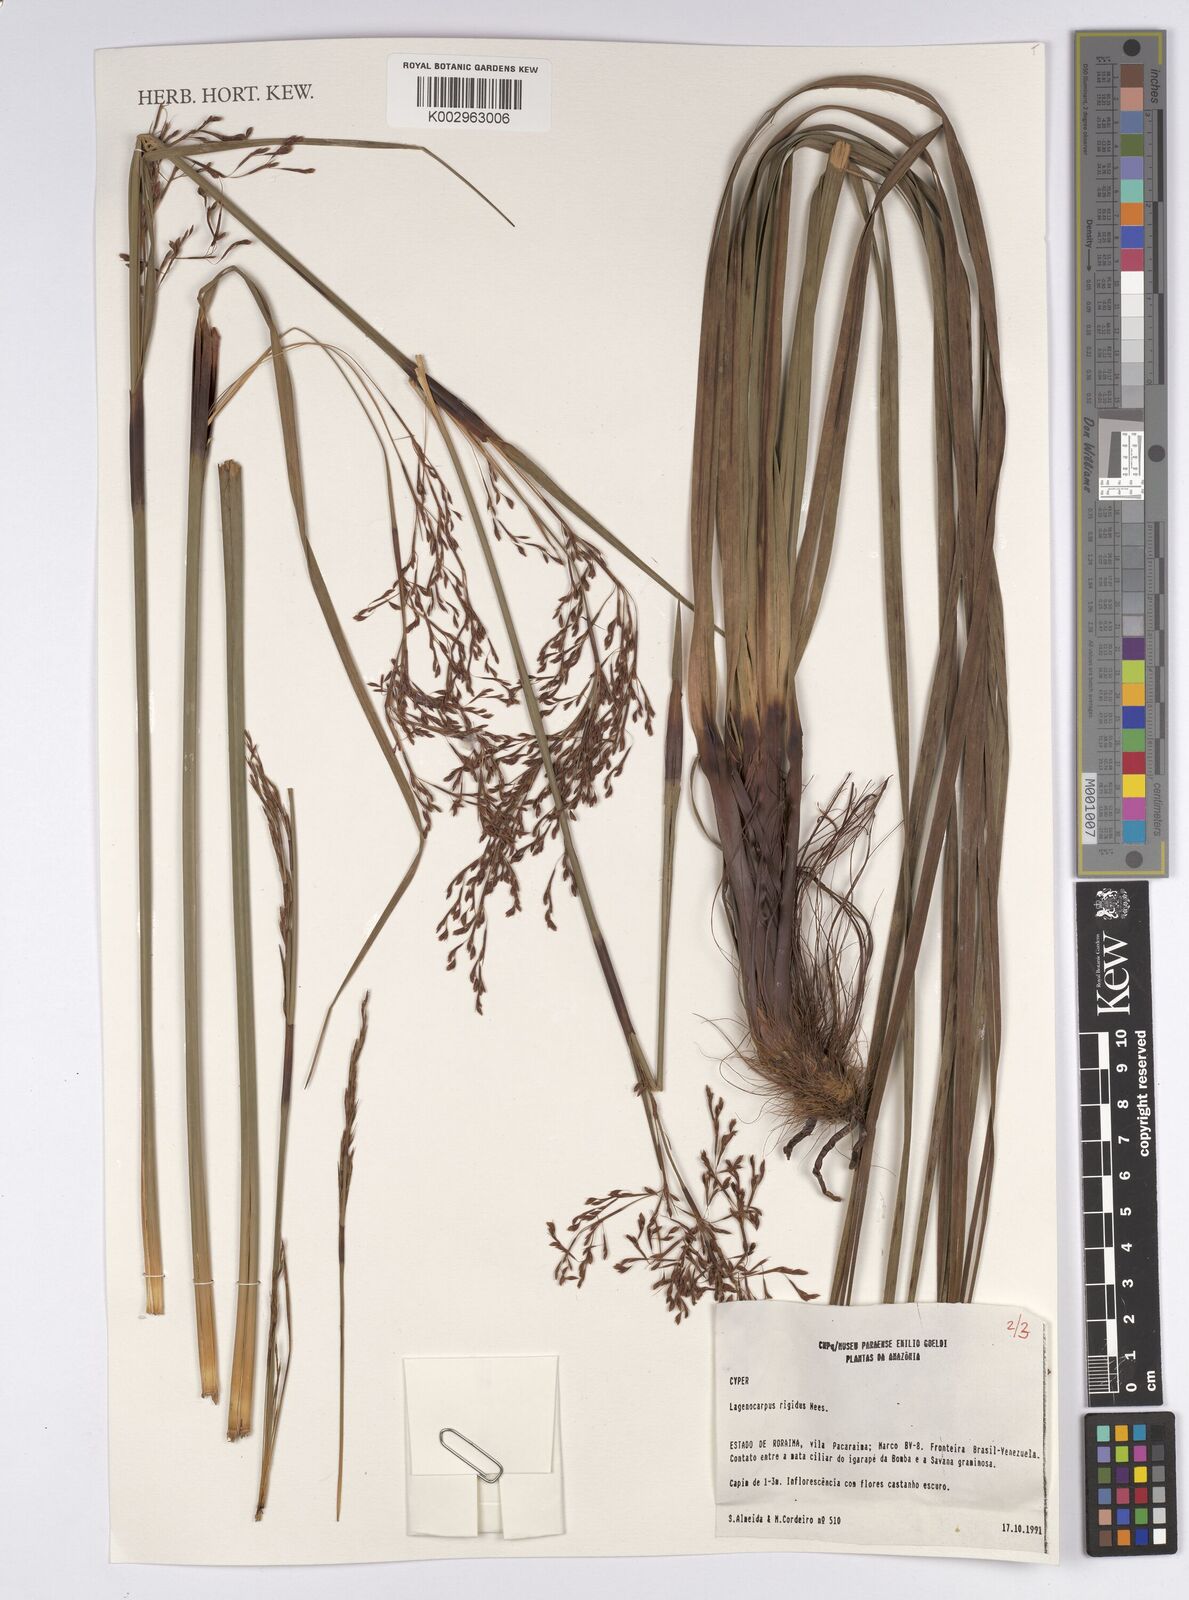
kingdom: Plantae
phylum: Tracheophyta
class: Liliopsida
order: Poales
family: Cyperaceae
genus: Lagenocarpus
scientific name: Lagenocarpus rigidus
